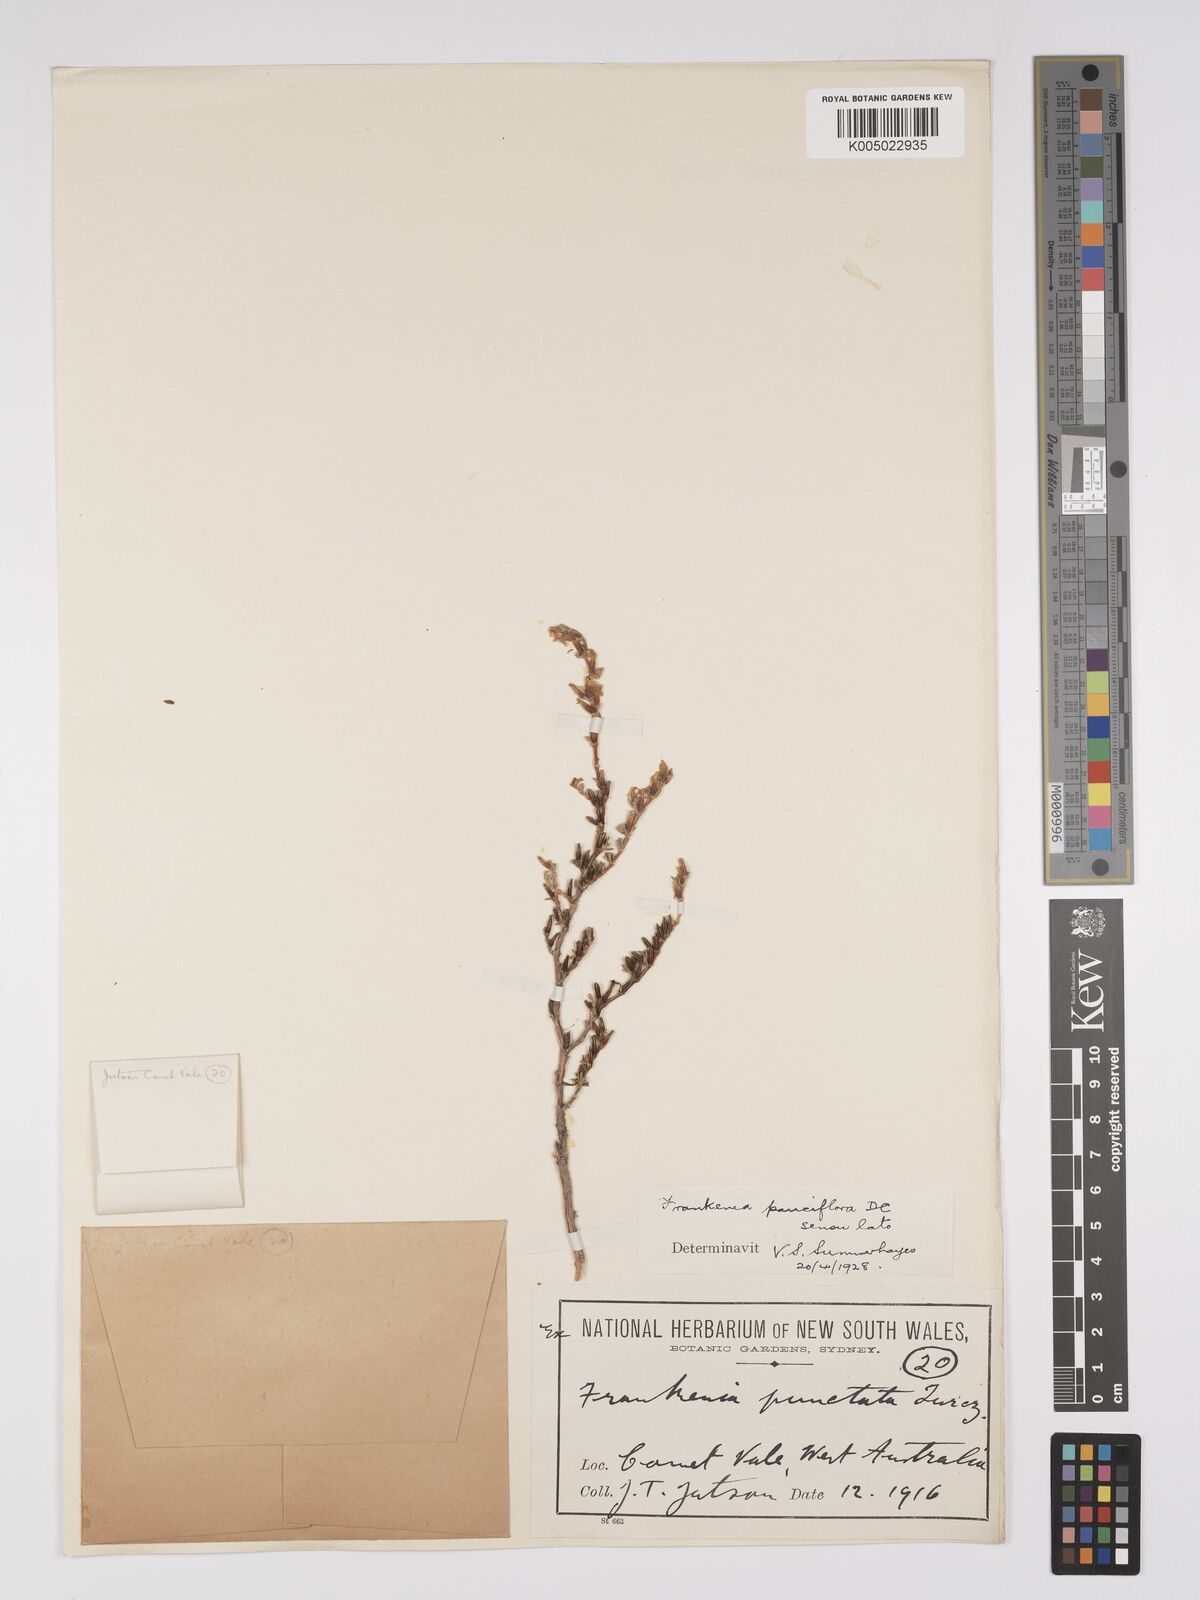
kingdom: Plantae
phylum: Tracheophyta
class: Magnoliopsida
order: Caryophyllales
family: Frankeniaceae
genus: Frankenia
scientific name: Frankenia pauciflora
